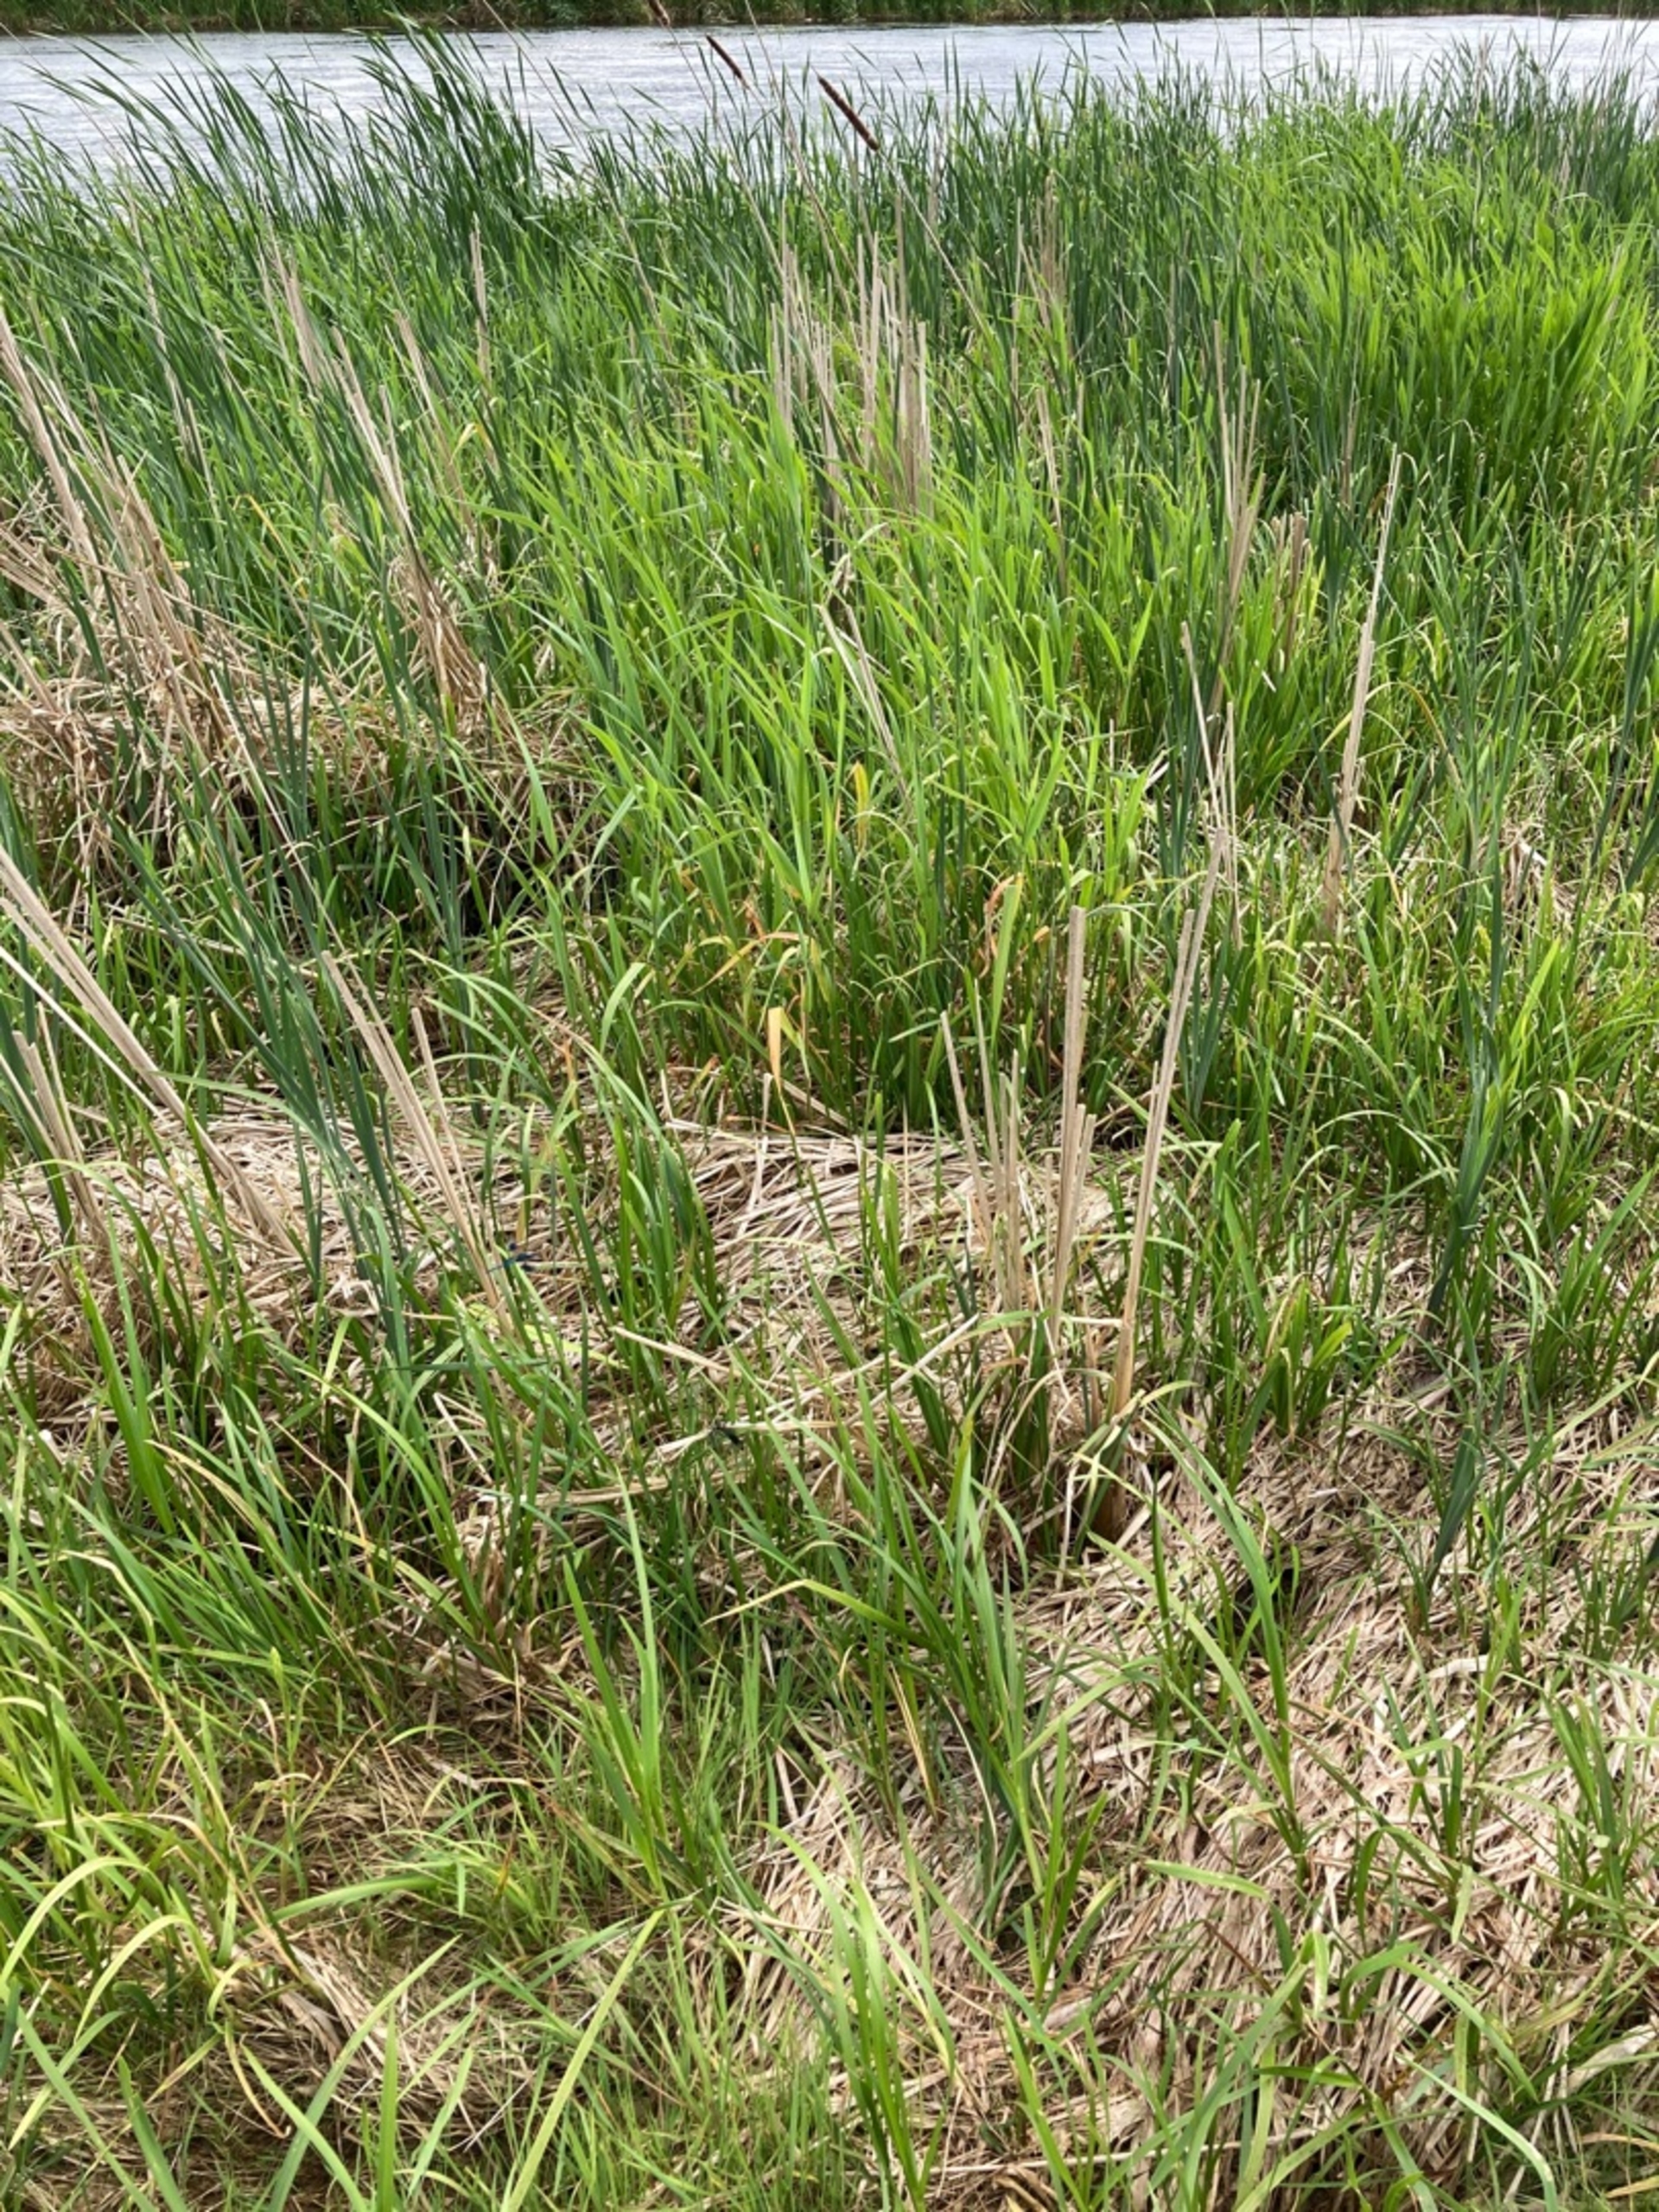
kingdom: Animalia
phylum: Arthropoda
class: Insecta
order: Odonata
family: Gomphidae
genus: Gomphus
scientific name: Gomphus vulgatissimus
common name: Almindelig flodguldsmed
